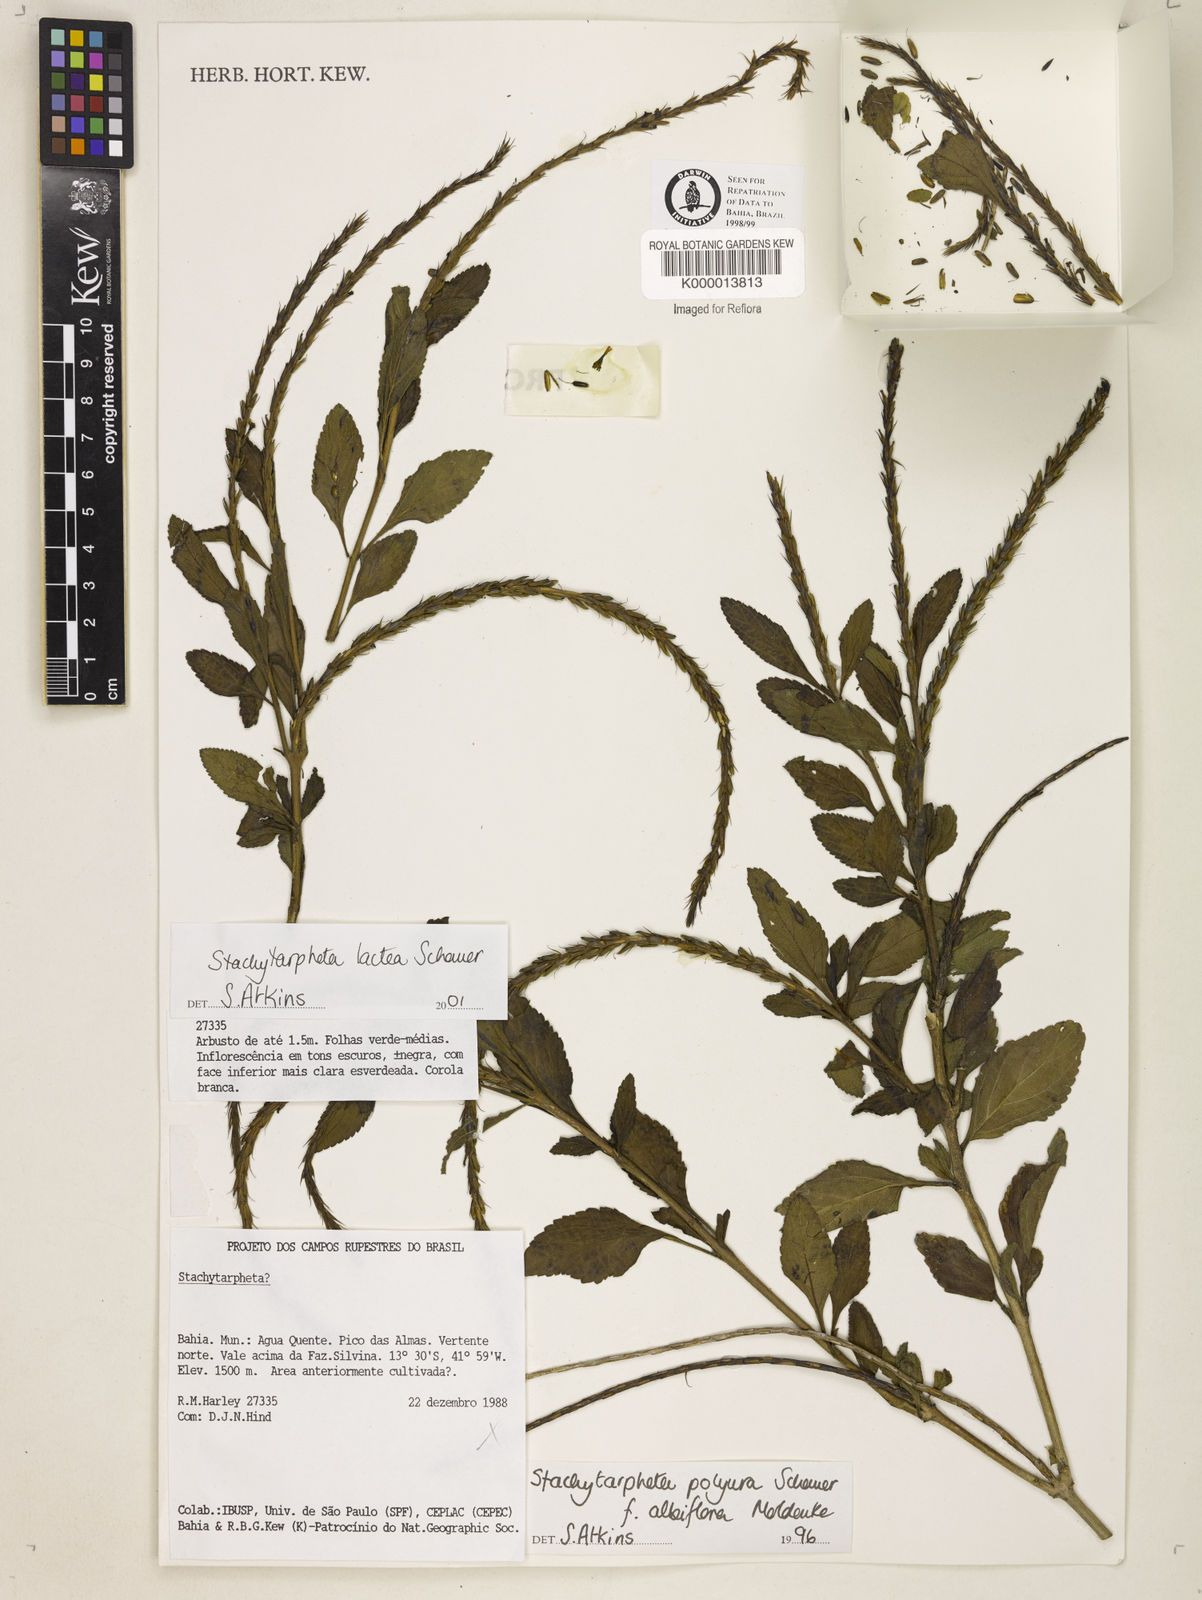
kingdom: Plantae
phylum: Tracheophyta
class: Magnoliopsida
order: Lamiales
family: Verbenaceae
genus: Stachytarpheta
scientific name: Stachytarpheta polyura
